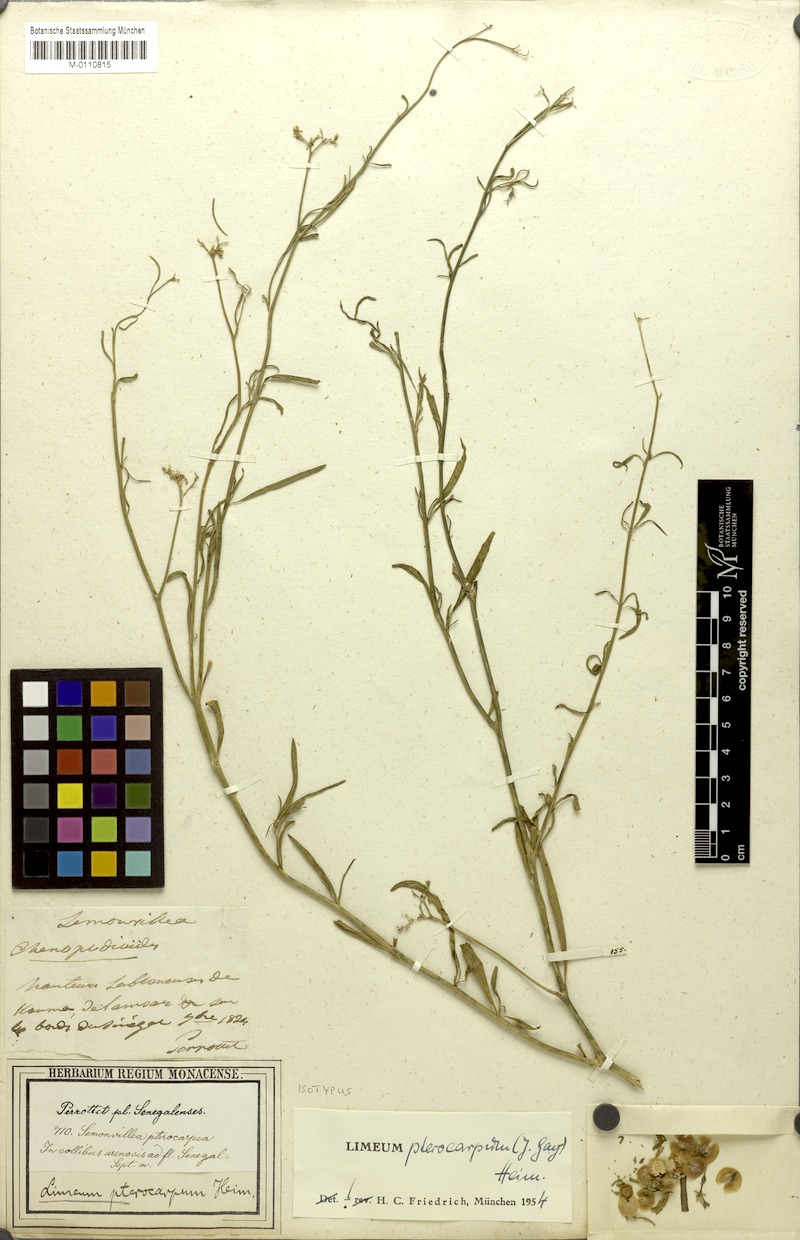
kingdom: Plantae
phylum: Tracheophyta
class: Magnoliopsida
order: Caryophyllales
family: Limeaceae
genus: Limeum
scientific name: Limeum pterocarpum
